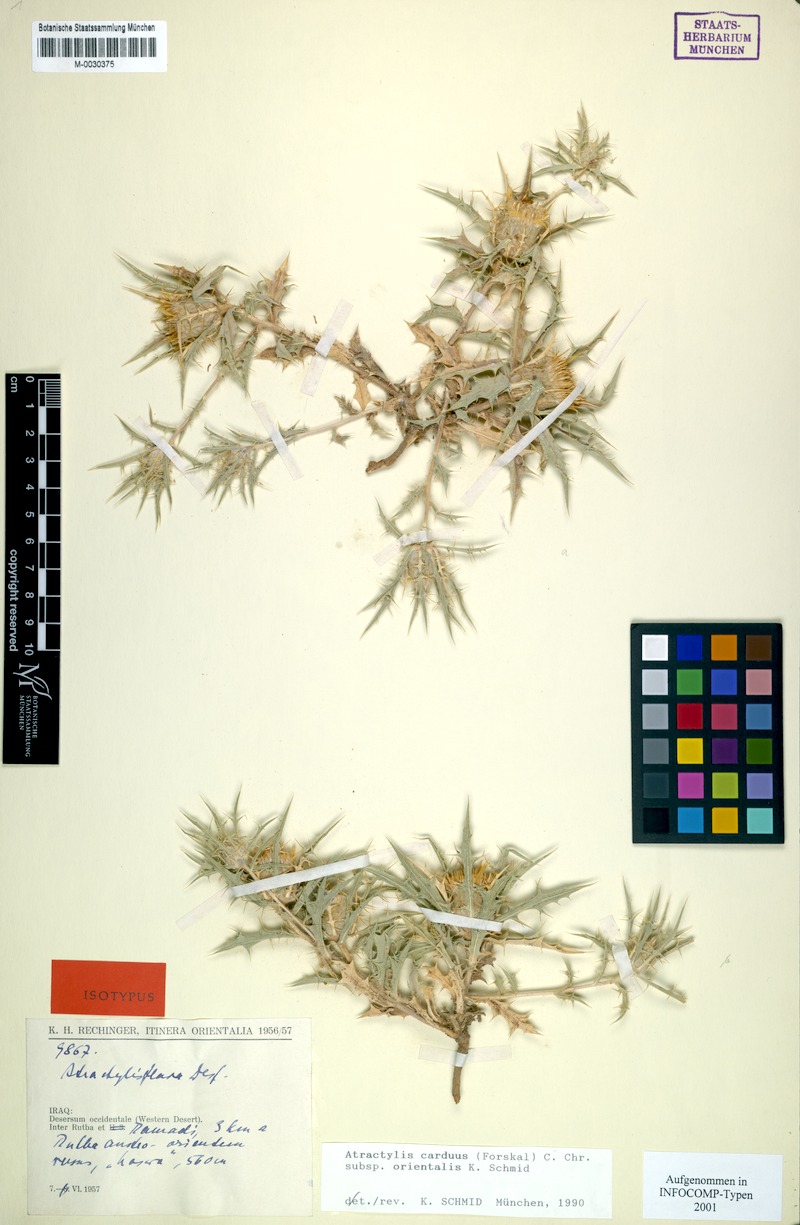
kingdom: Plantae
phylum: Tracheophyta
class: Magnoliopsida
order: Asterales
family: Asteraceae
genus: Atractylis
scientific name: Atractylis carduus
